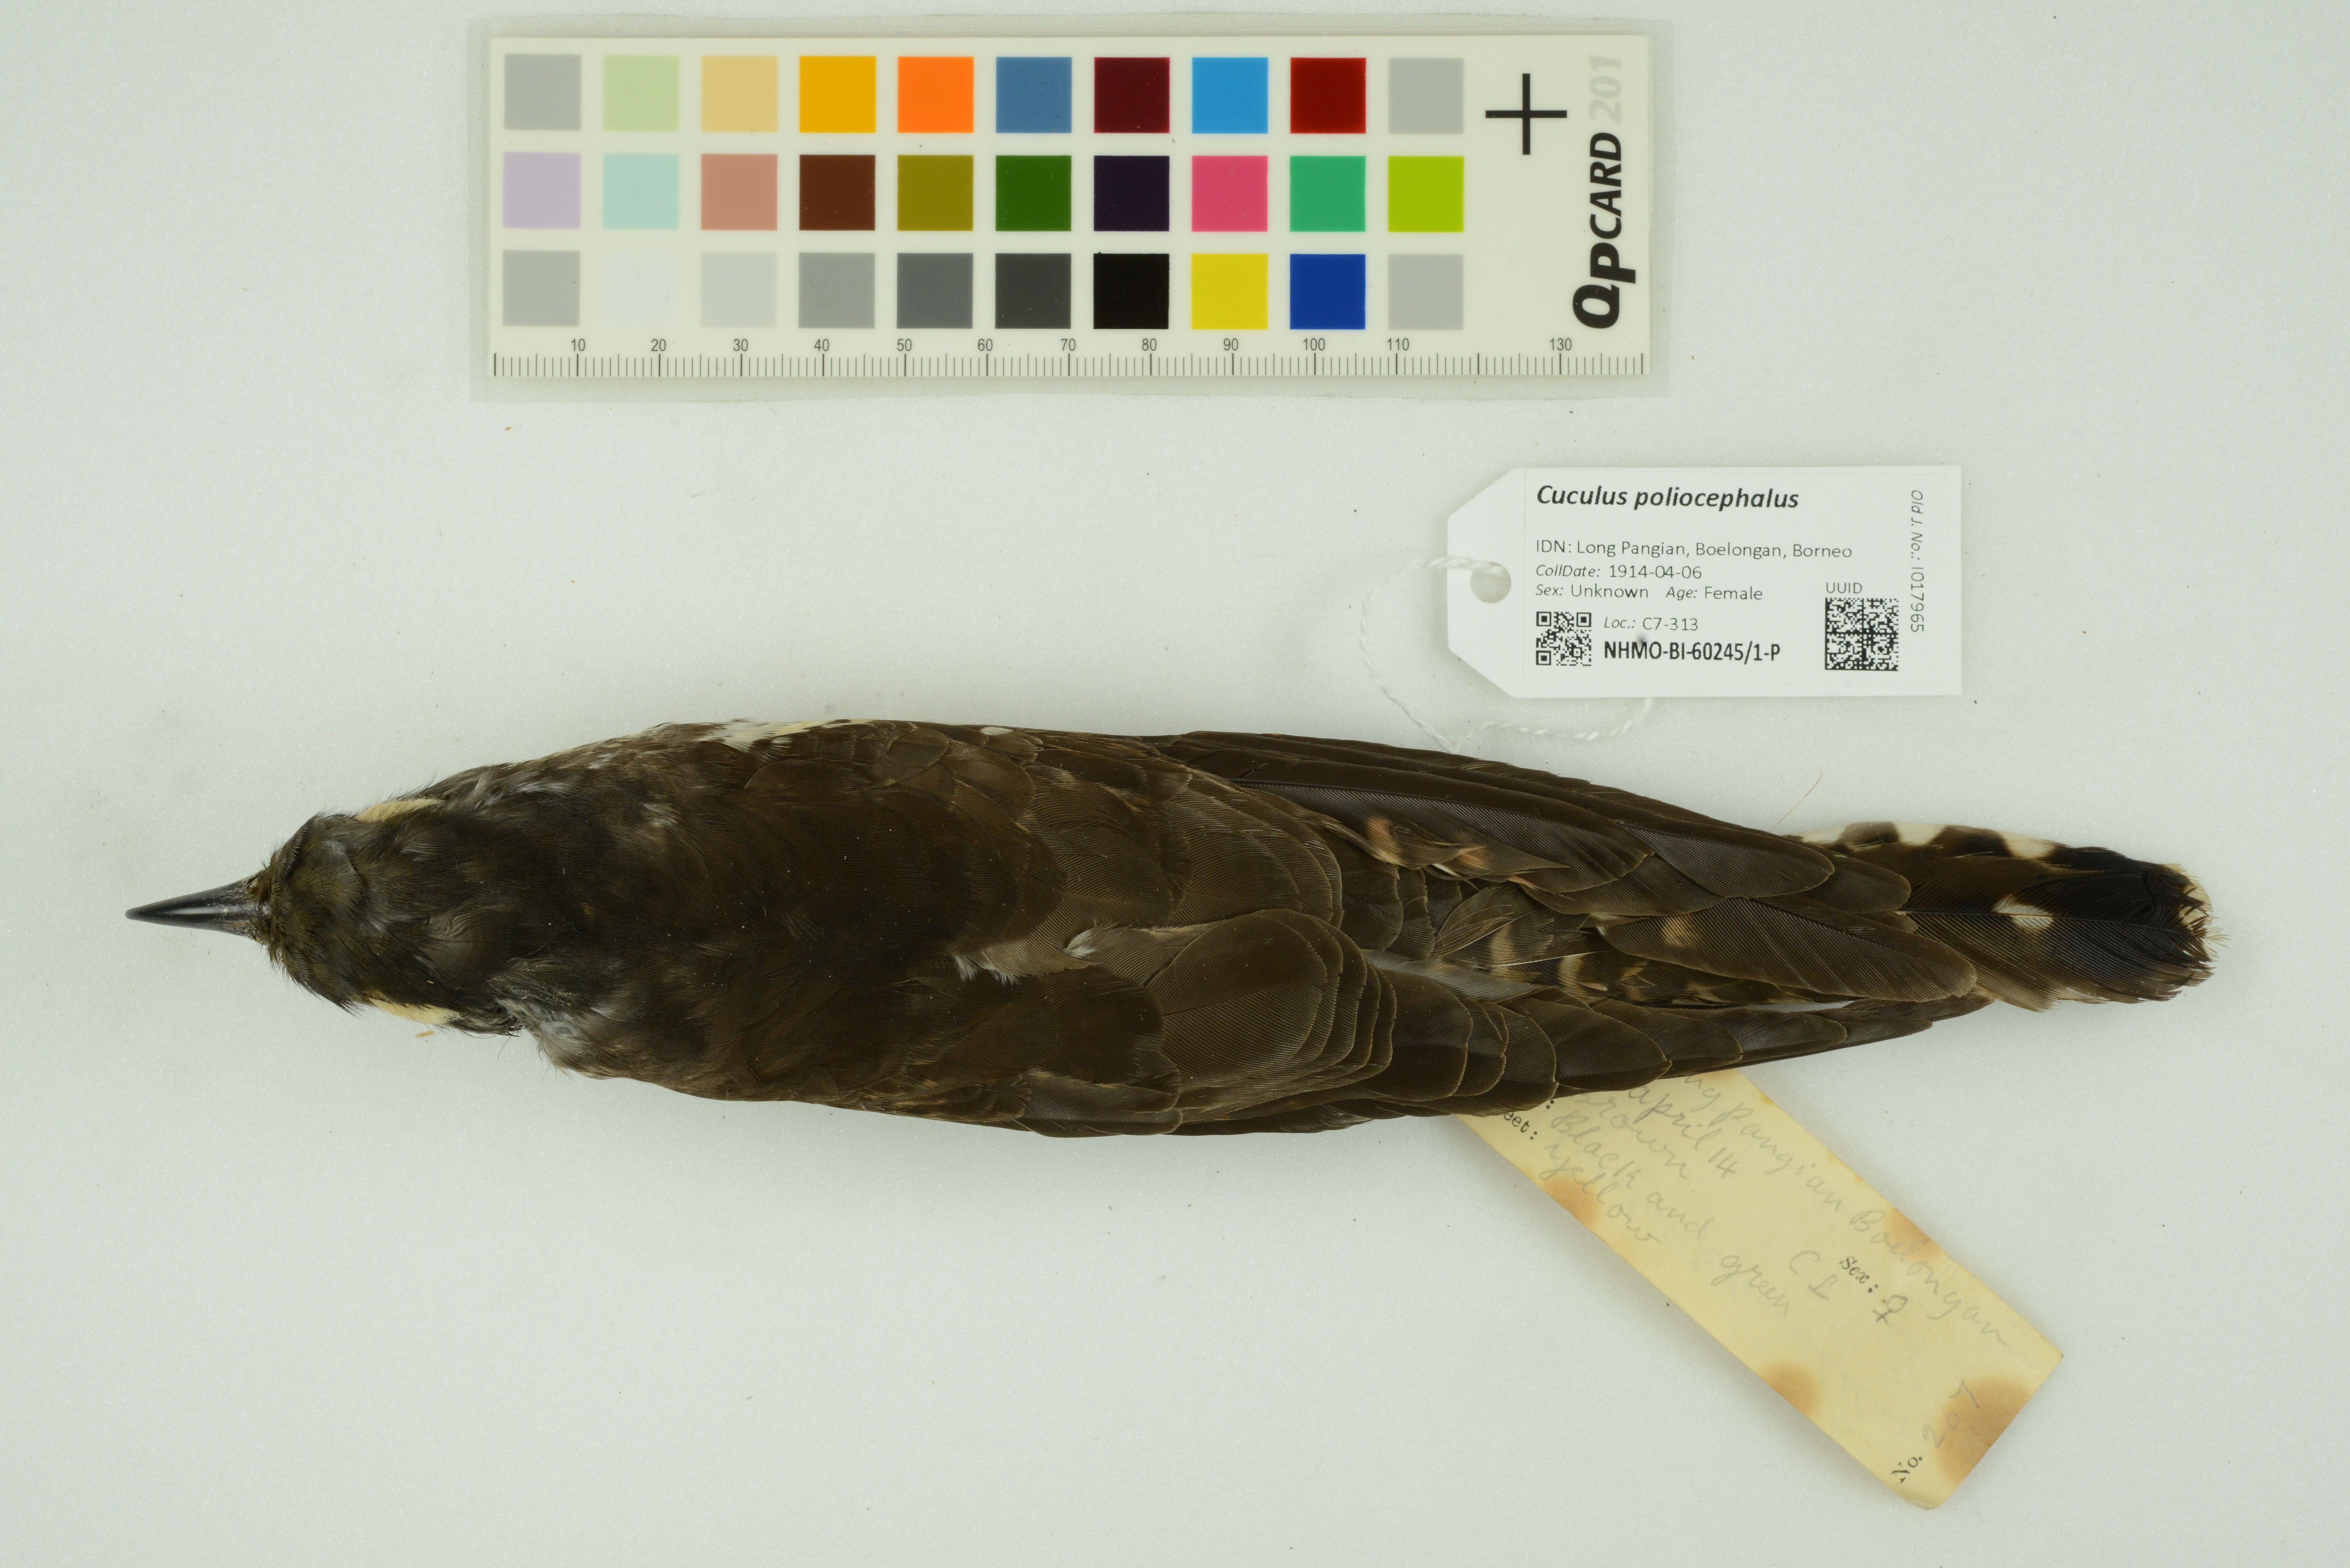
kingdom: Animalia
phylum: Chordata
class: Aves
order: Cuculiformes
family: Cuculidae
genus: Cuculus
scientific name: Cuculus poliocephalus
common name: Lesser cuckoo
